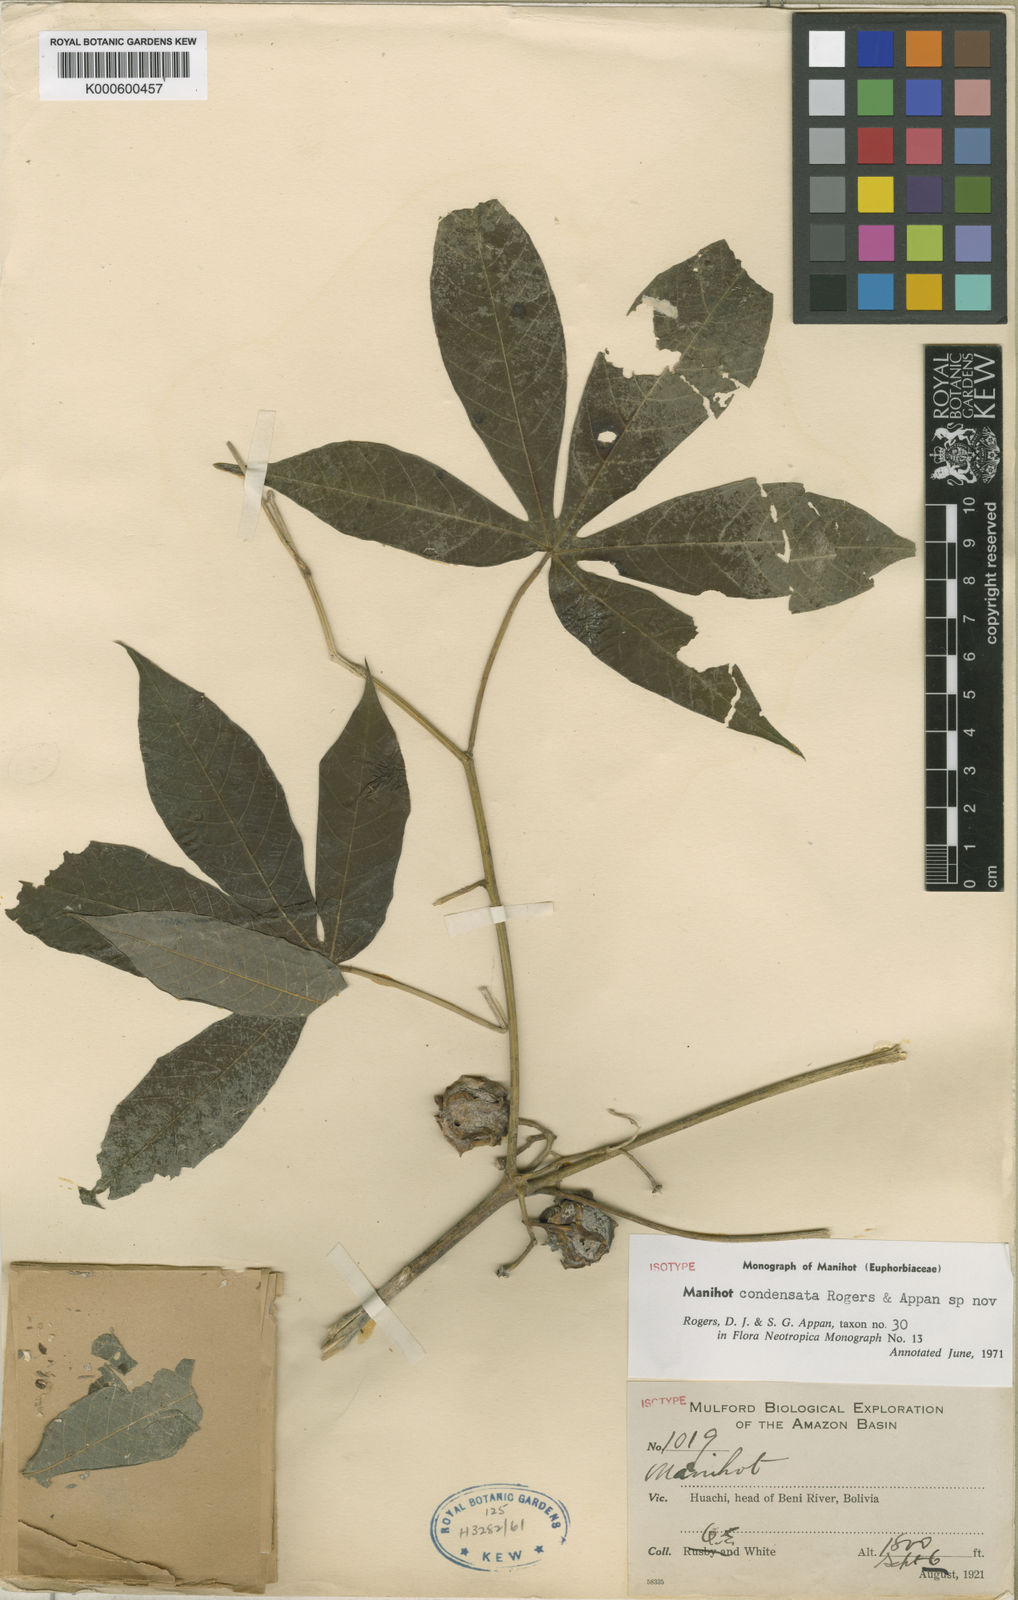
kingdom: Plantae
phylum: Tracheophyta
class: Magnoliopsida
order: Malpighiales
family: Euphorbiaceae
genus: Manihot
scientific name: Manihot condensata
